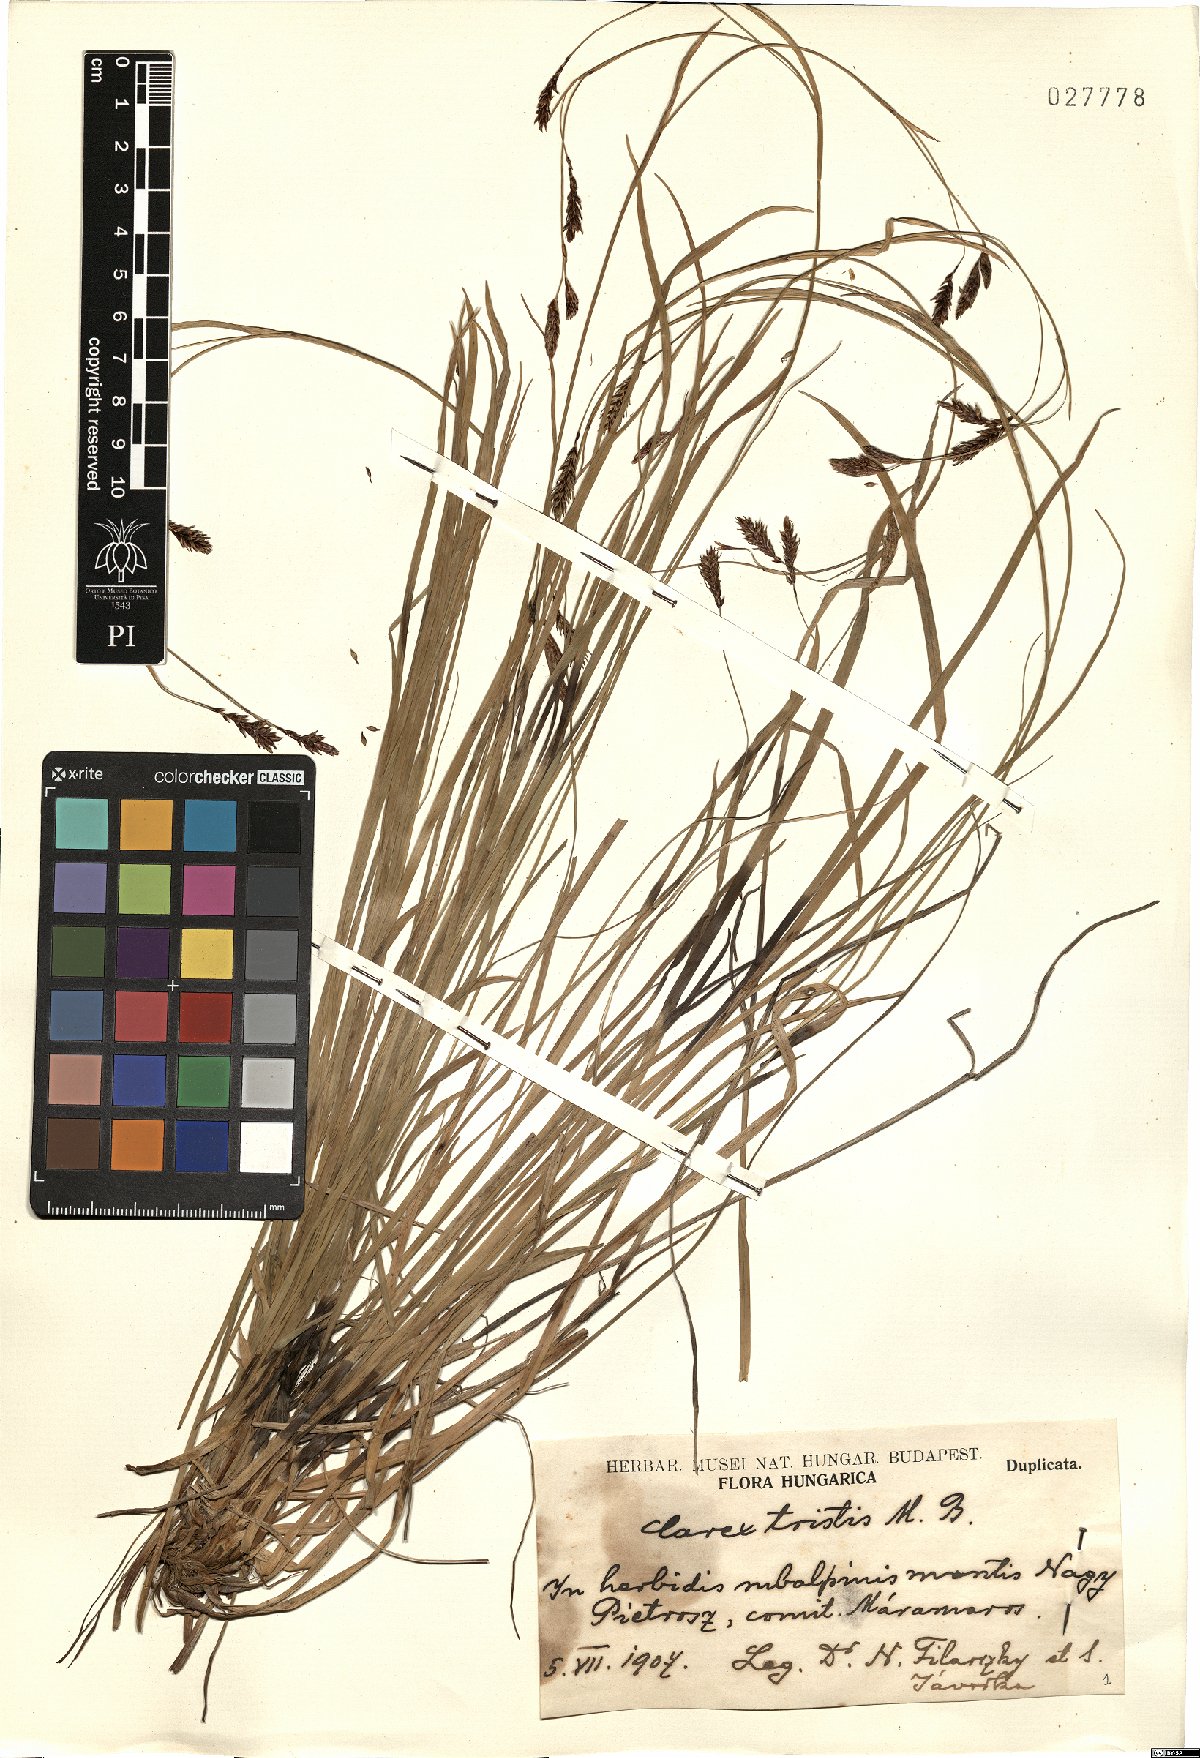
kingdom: Plantae
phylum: Tracheophyta
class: Liliopsida
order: Poales
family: Cyperaceae
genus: Carex
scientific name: Carex tristis
